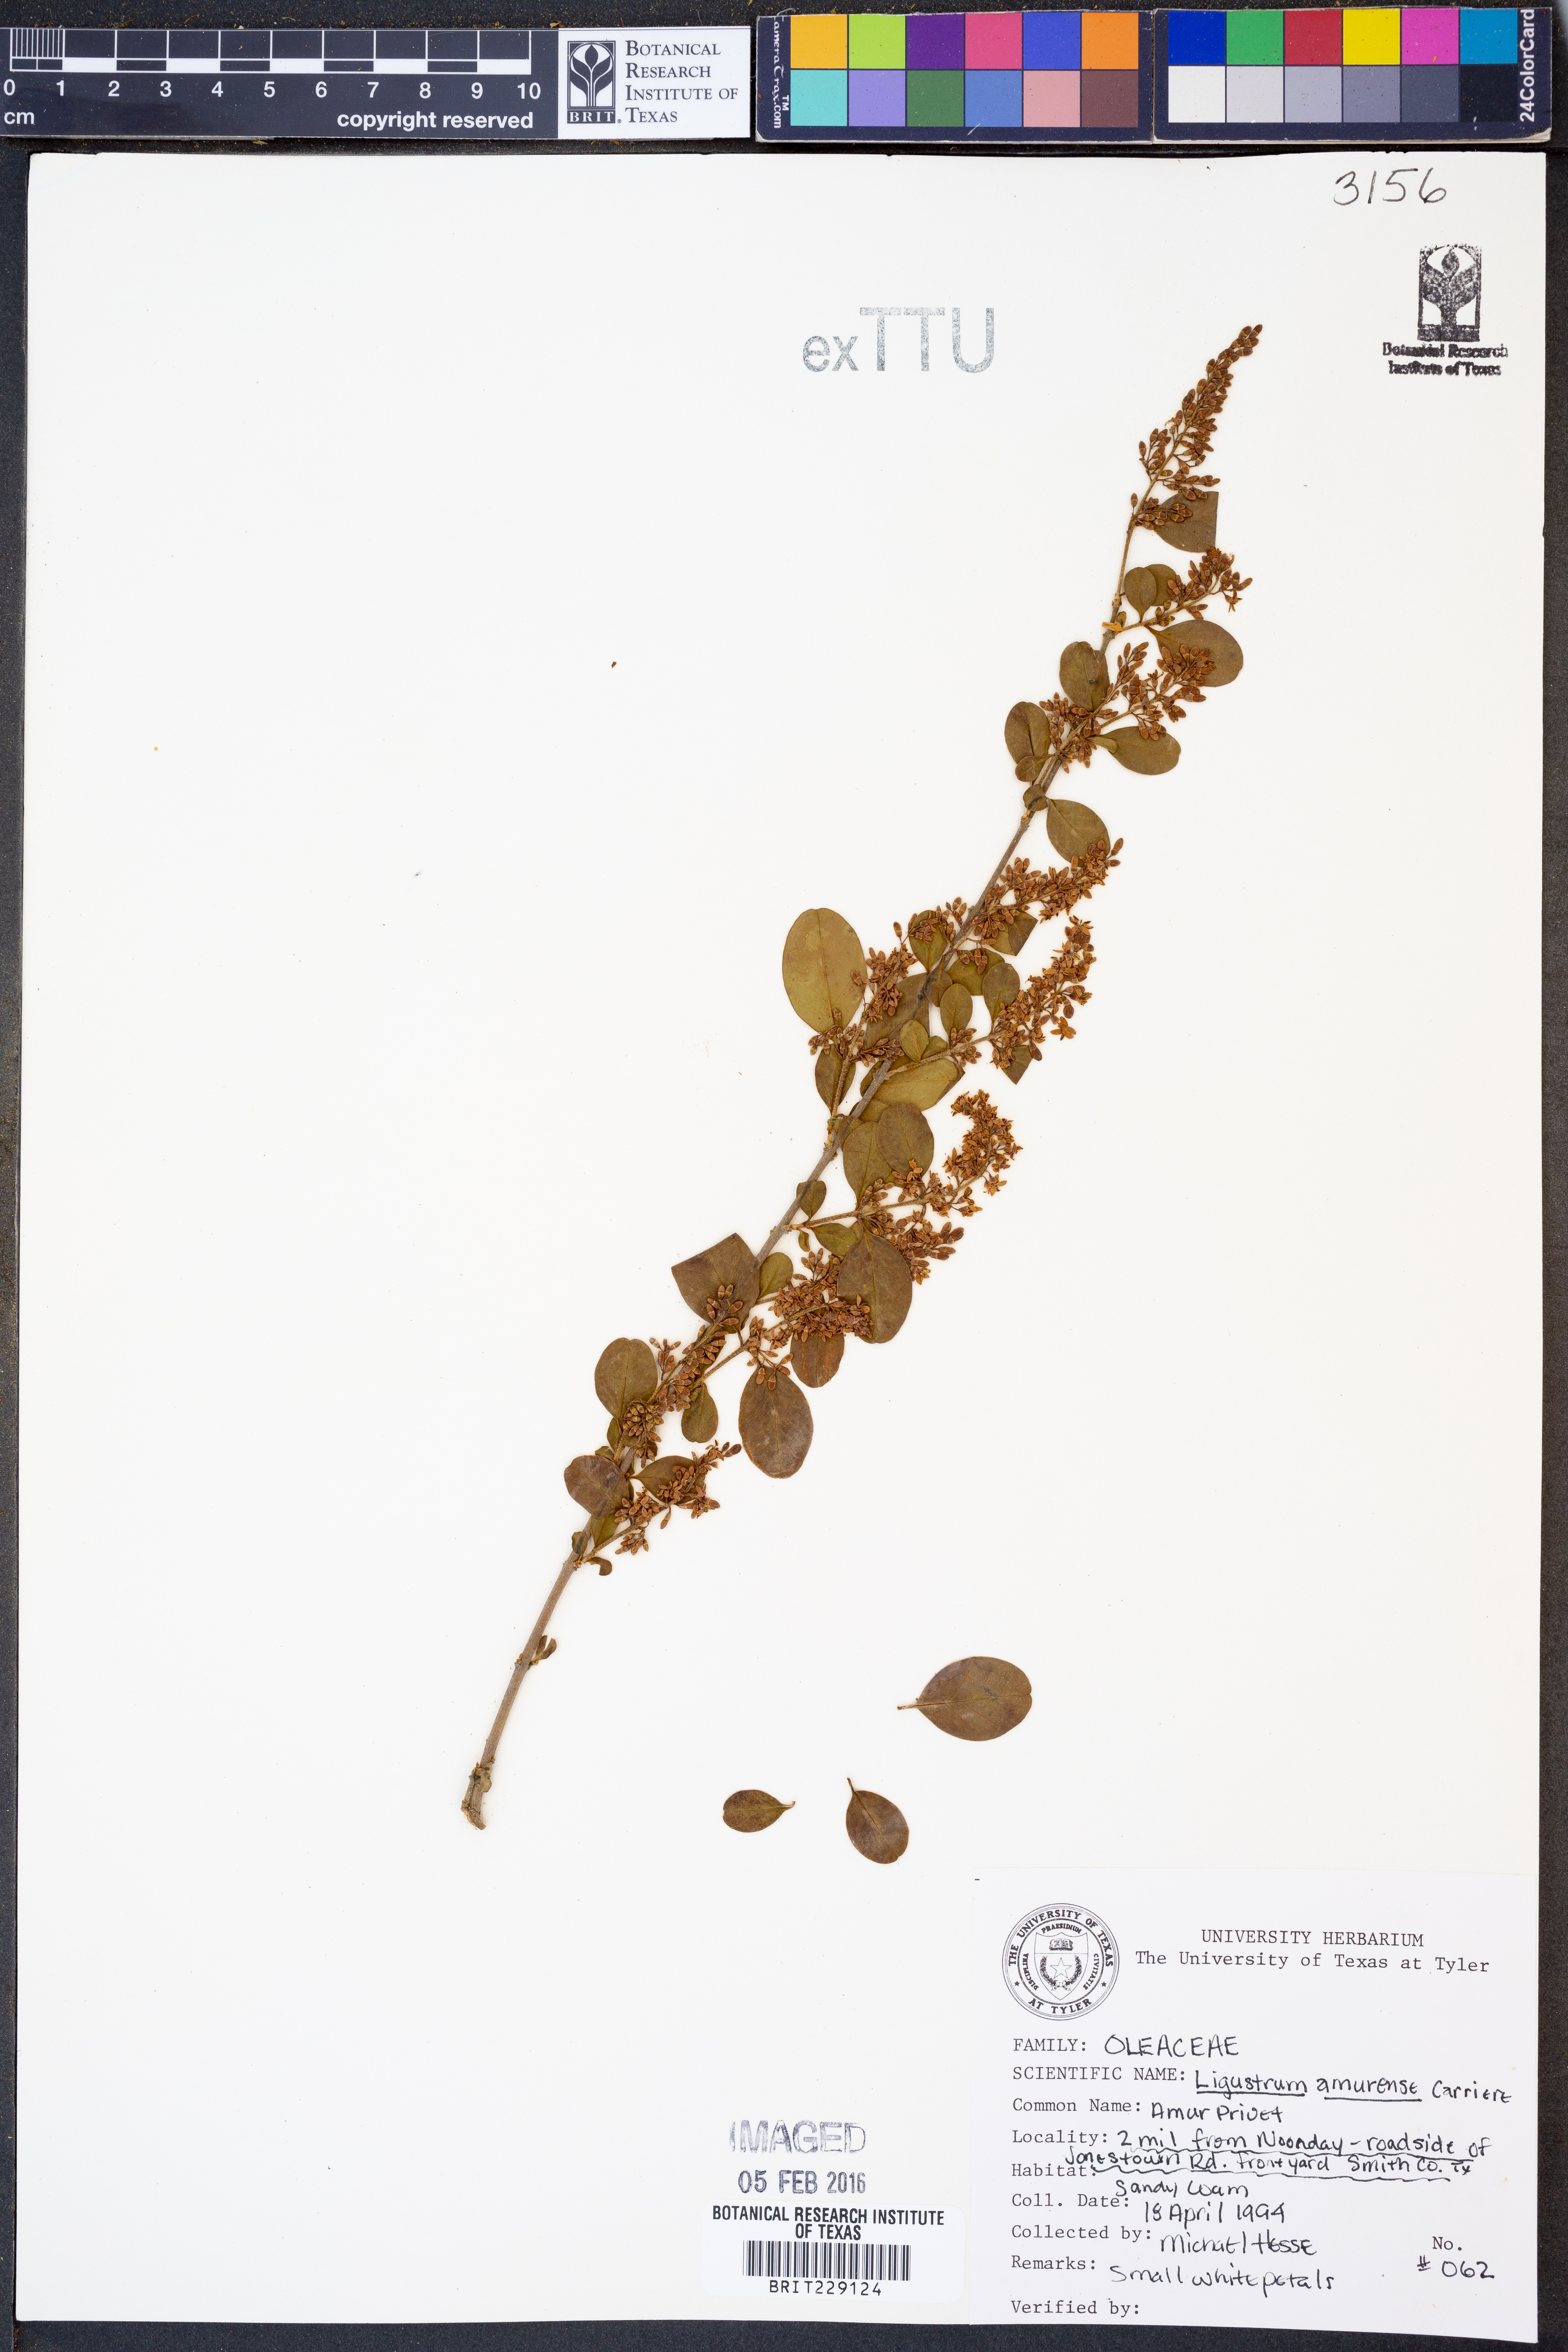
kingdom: Plantae
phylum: Tracheophyta
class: Magnoliopsida
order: Lamiales
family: Oleaceae
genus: Ligustrum
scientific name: Ligustrum obtusifolium
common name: Border privet
